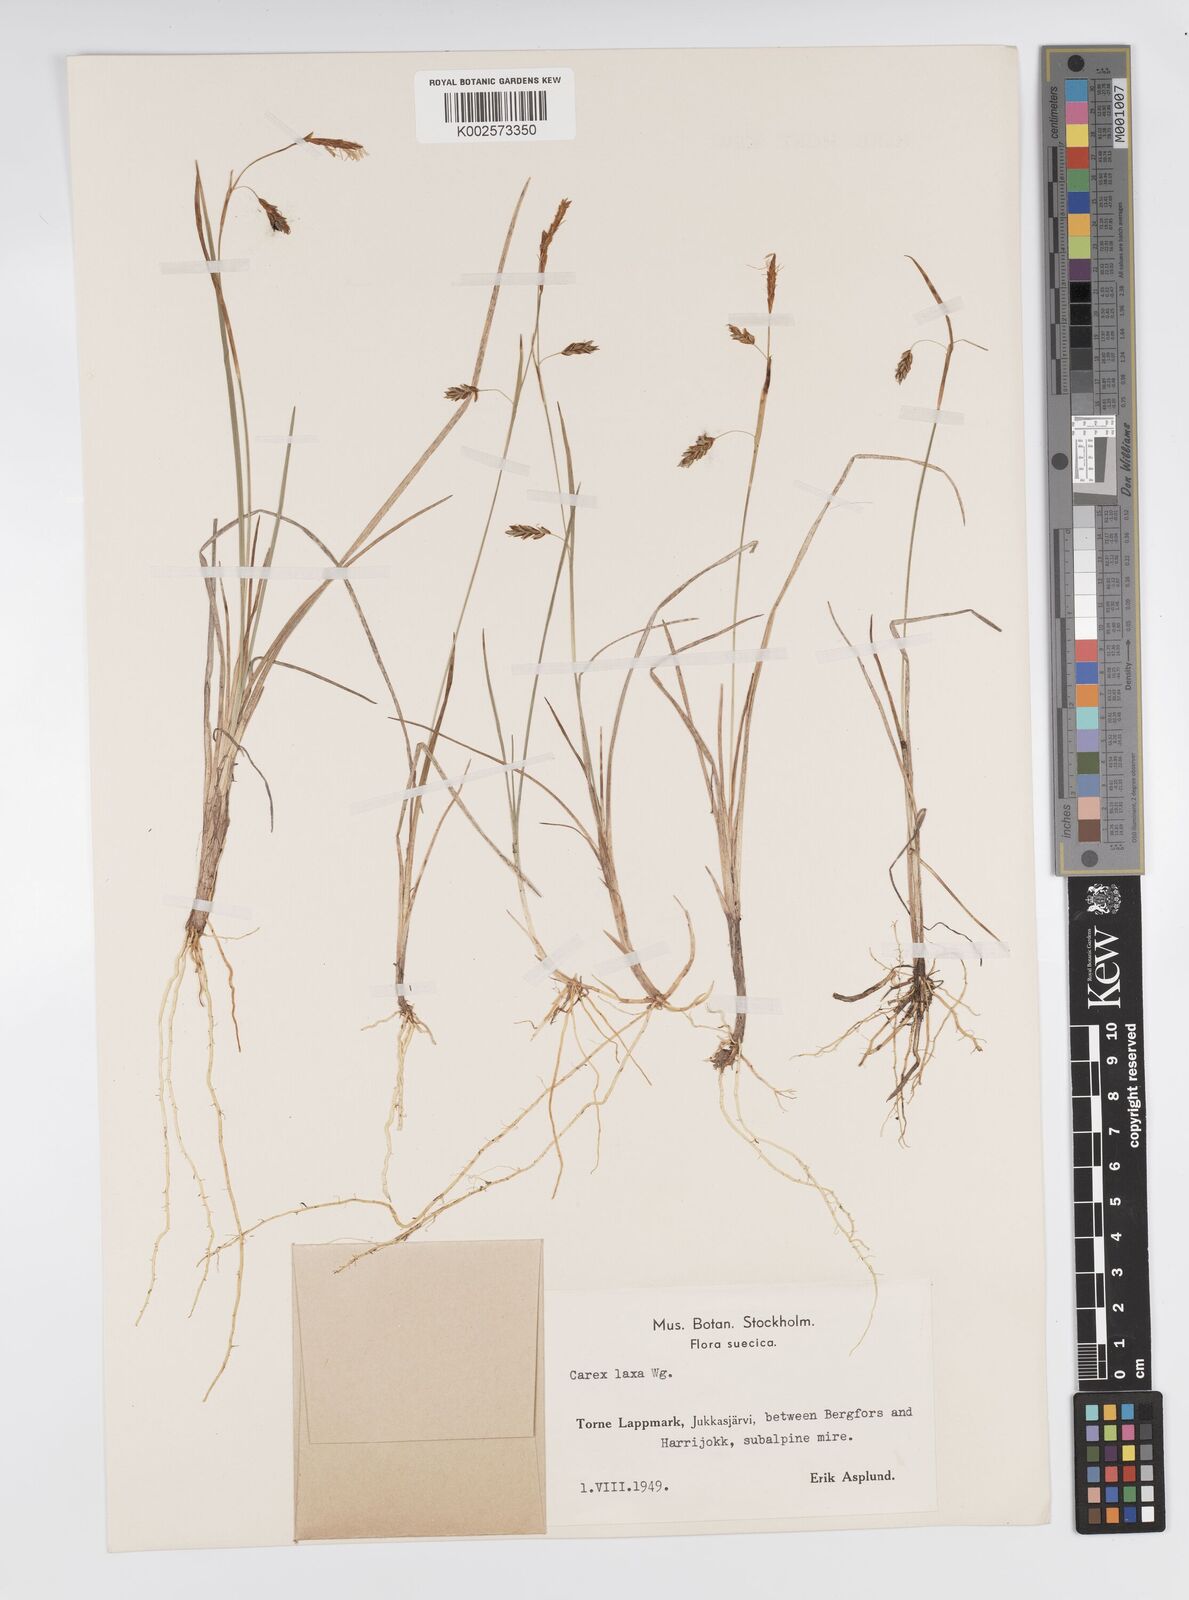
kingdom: Plantae
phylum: Tracheophyta
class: Liliopsida
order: Poales
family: Cyperaceae
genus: Carex
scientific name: Carex laxa
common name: Weak sedge
